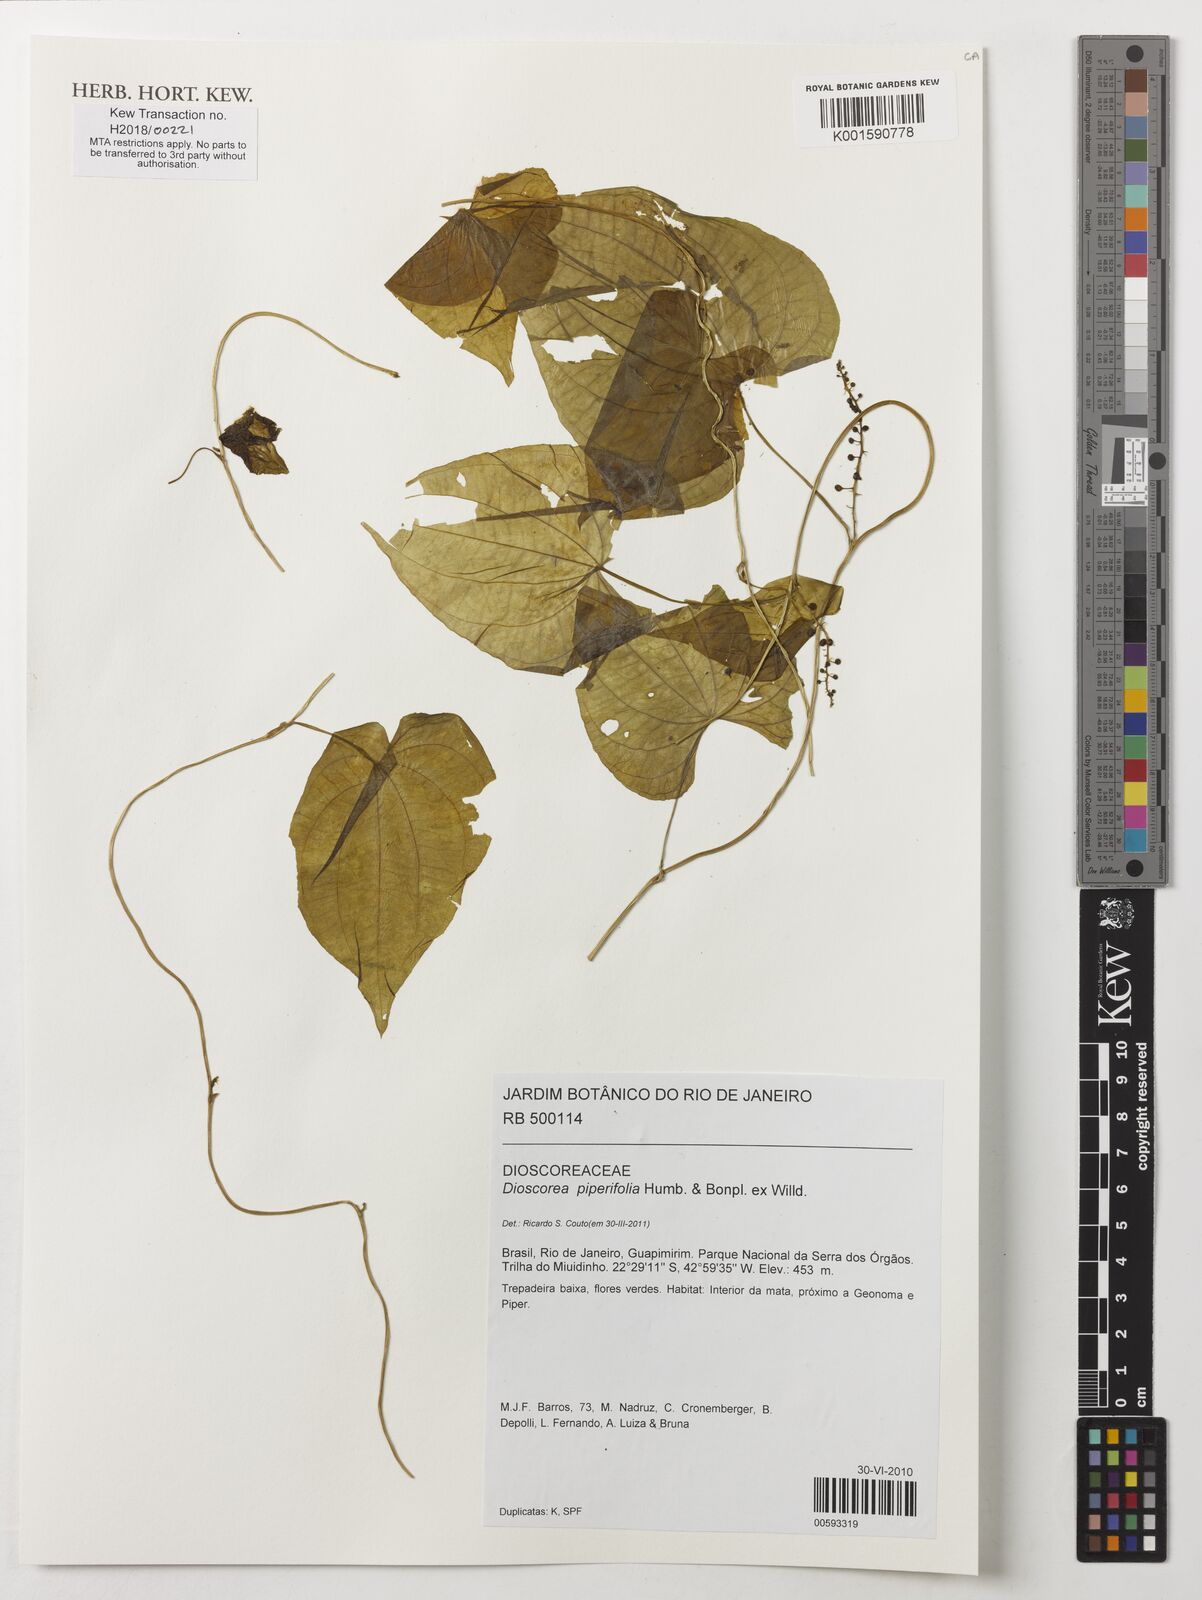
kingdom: Plantae
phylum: Tracheophyta
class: Liliopsida
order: Dioscoreales
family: Dioscoreaceae
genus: Dioscorea
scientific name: Dioscorea piperifolia
